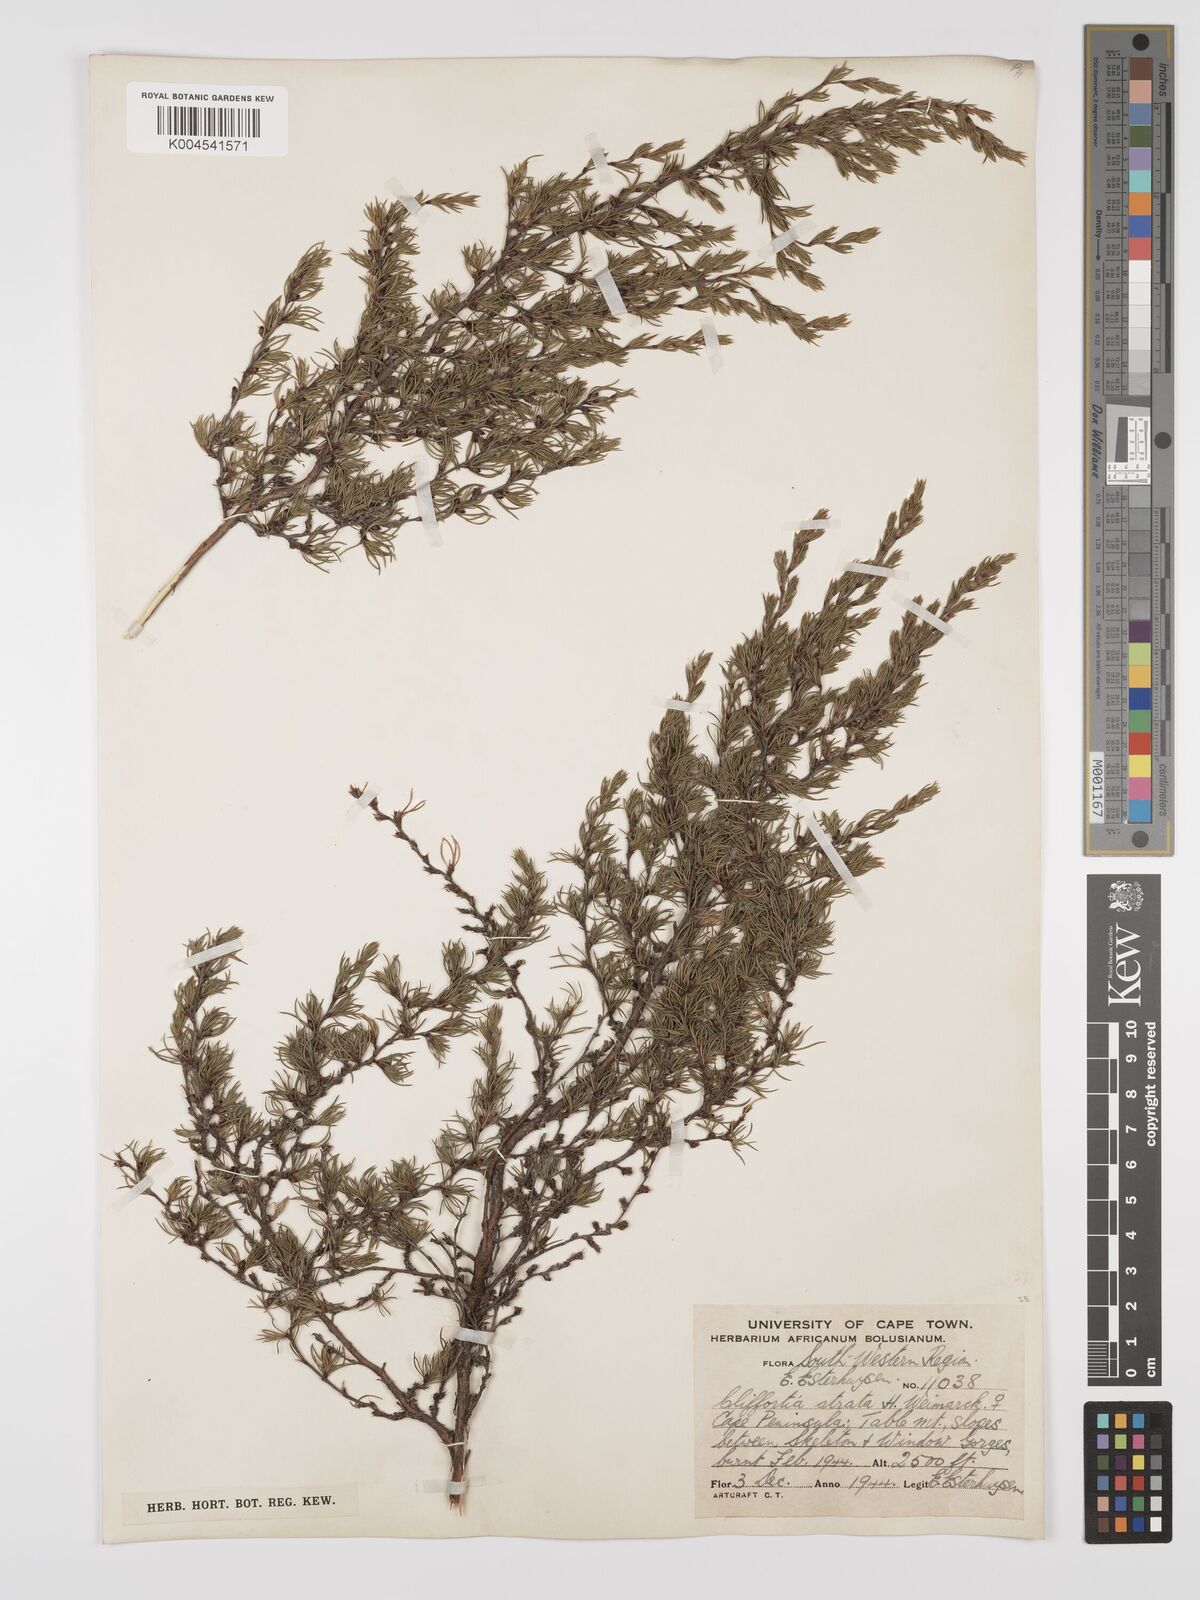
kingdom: Plantae
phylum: Tracheophyta
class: Magnoliopsida
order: Rosales
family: Rosaceae
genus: Cliffortia
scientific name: Cliffortia atrata
